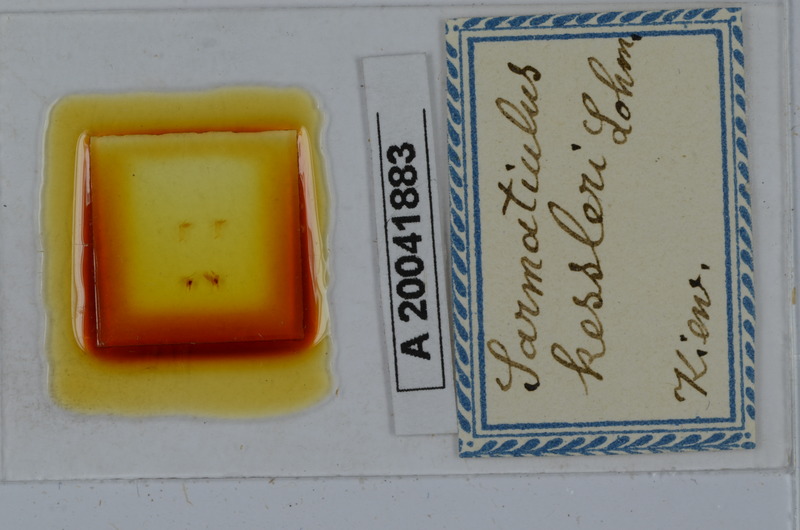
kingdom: Animalia
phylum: Arthropoda
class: Diplopoda
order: Julida
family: Julidae
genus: Rossiulus
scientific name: Rossiulus kessleri
